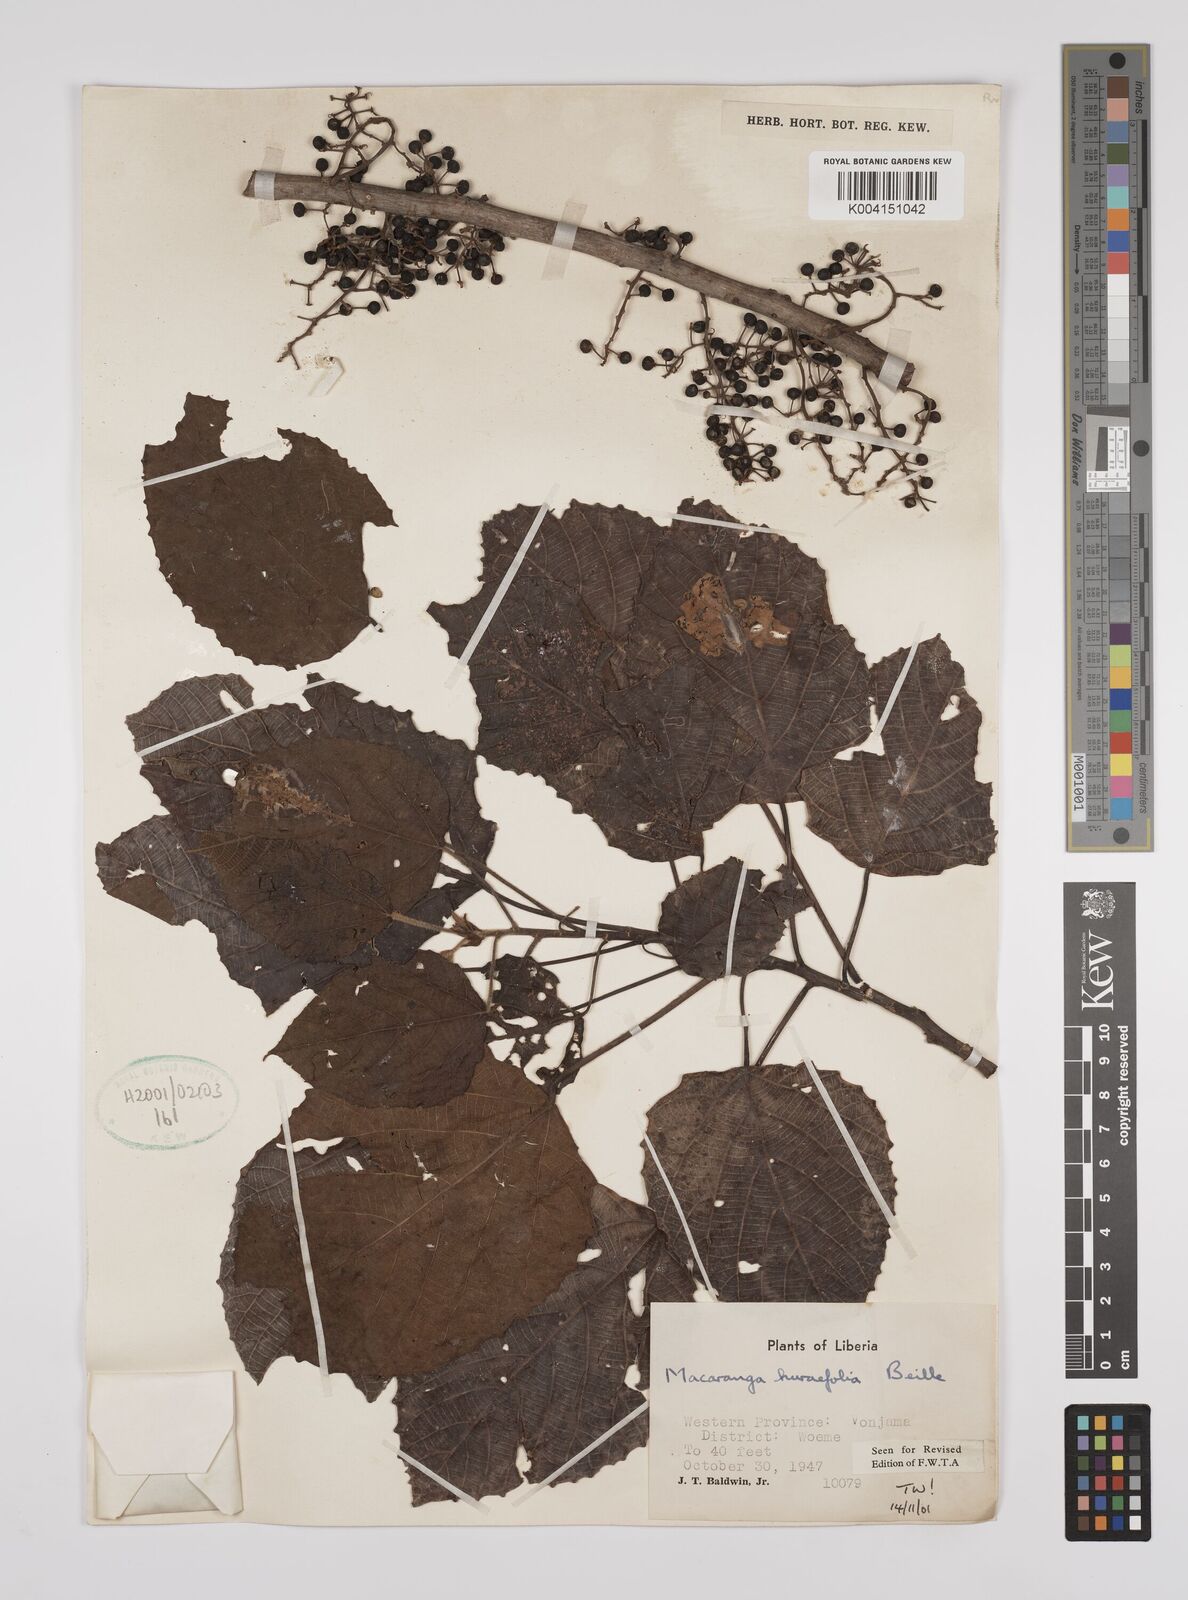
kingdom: Plantae
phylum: Tracheophyta
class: Magnoliopsida
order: Malpighiales
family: Euphorbiaceae
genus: Macaranga
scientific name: Macaranga hurifolia
